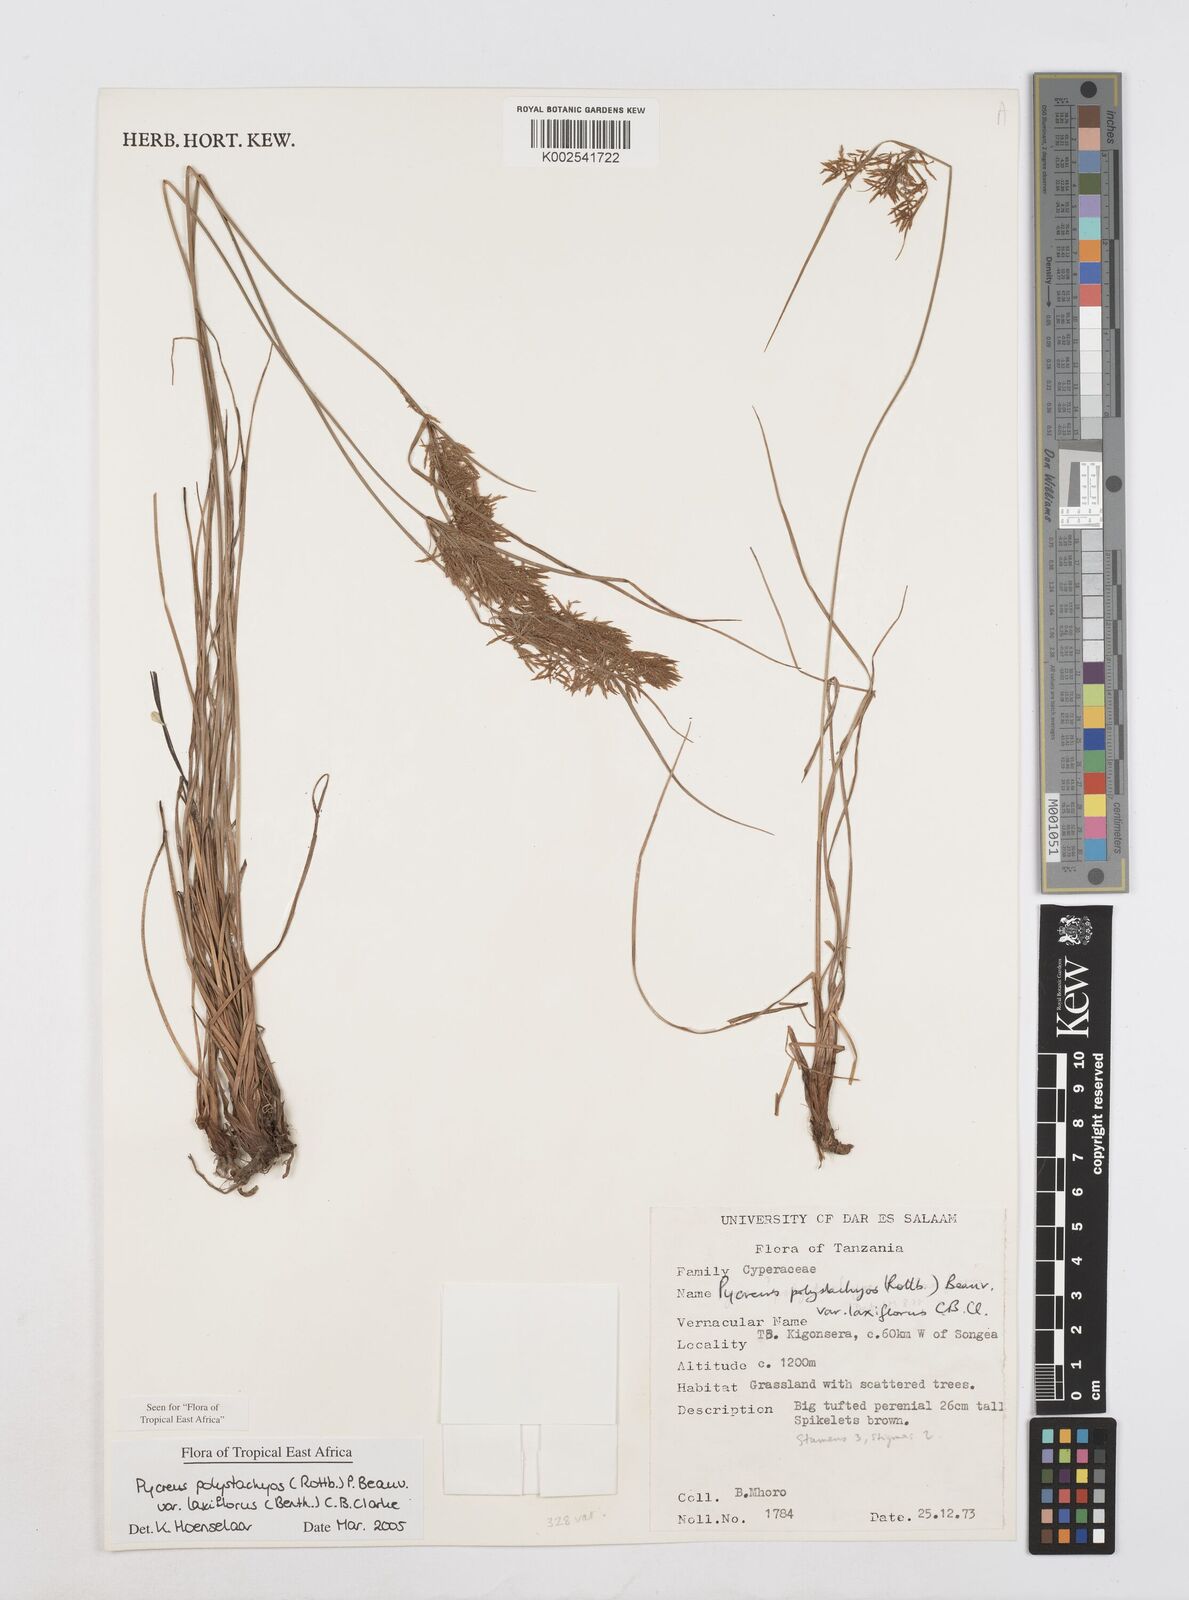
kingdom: Plantae
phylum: Tracheophyta
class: Liliopsida
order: Poales
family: Cyperaceae
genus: Cyperus
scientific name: Cyperus polystachyos
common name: Bunchy flat sedge
